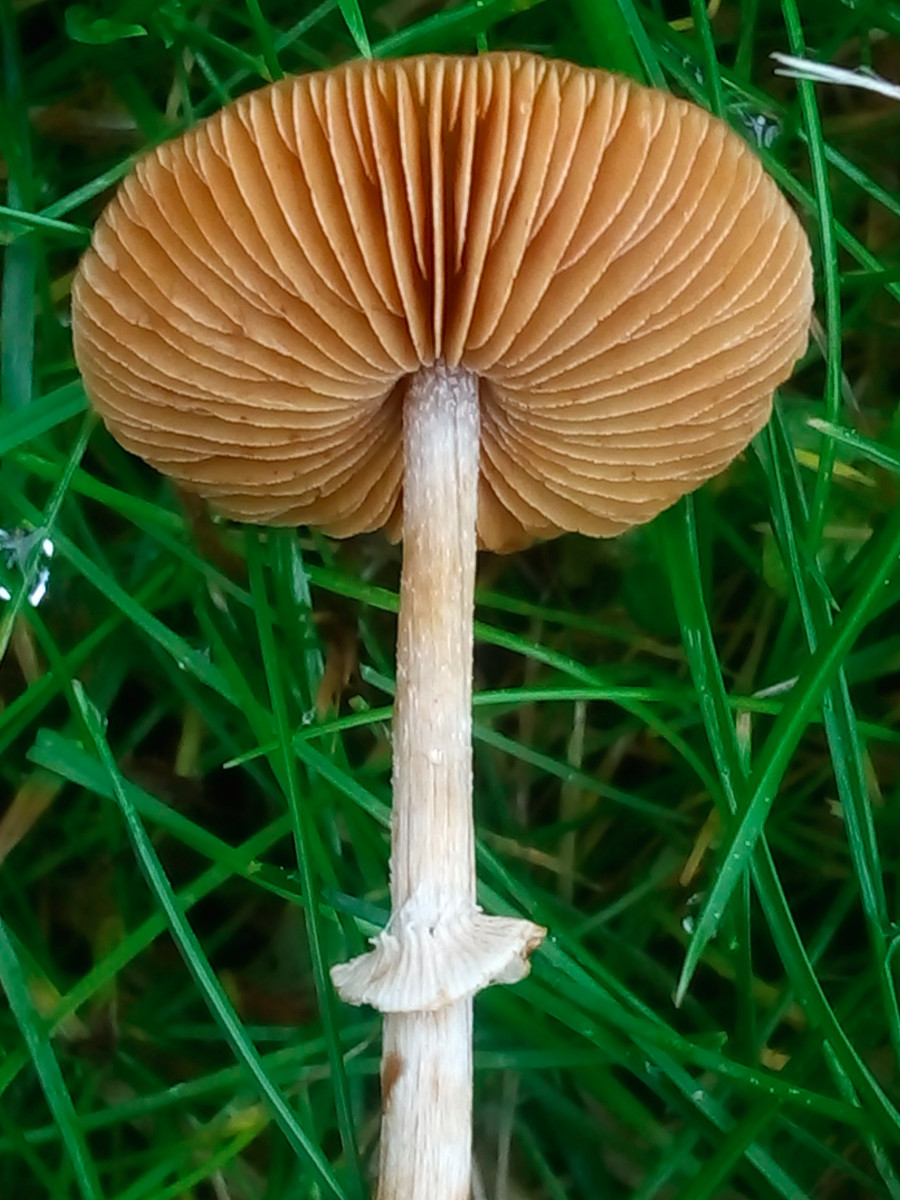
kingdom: Fungi
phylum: Basidiomycota
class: Agaricomycetes
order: Agaricales
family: Bolbitiaceae
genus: Conocybe
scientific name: Conocybe arrhenii
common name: ring-dansehat
